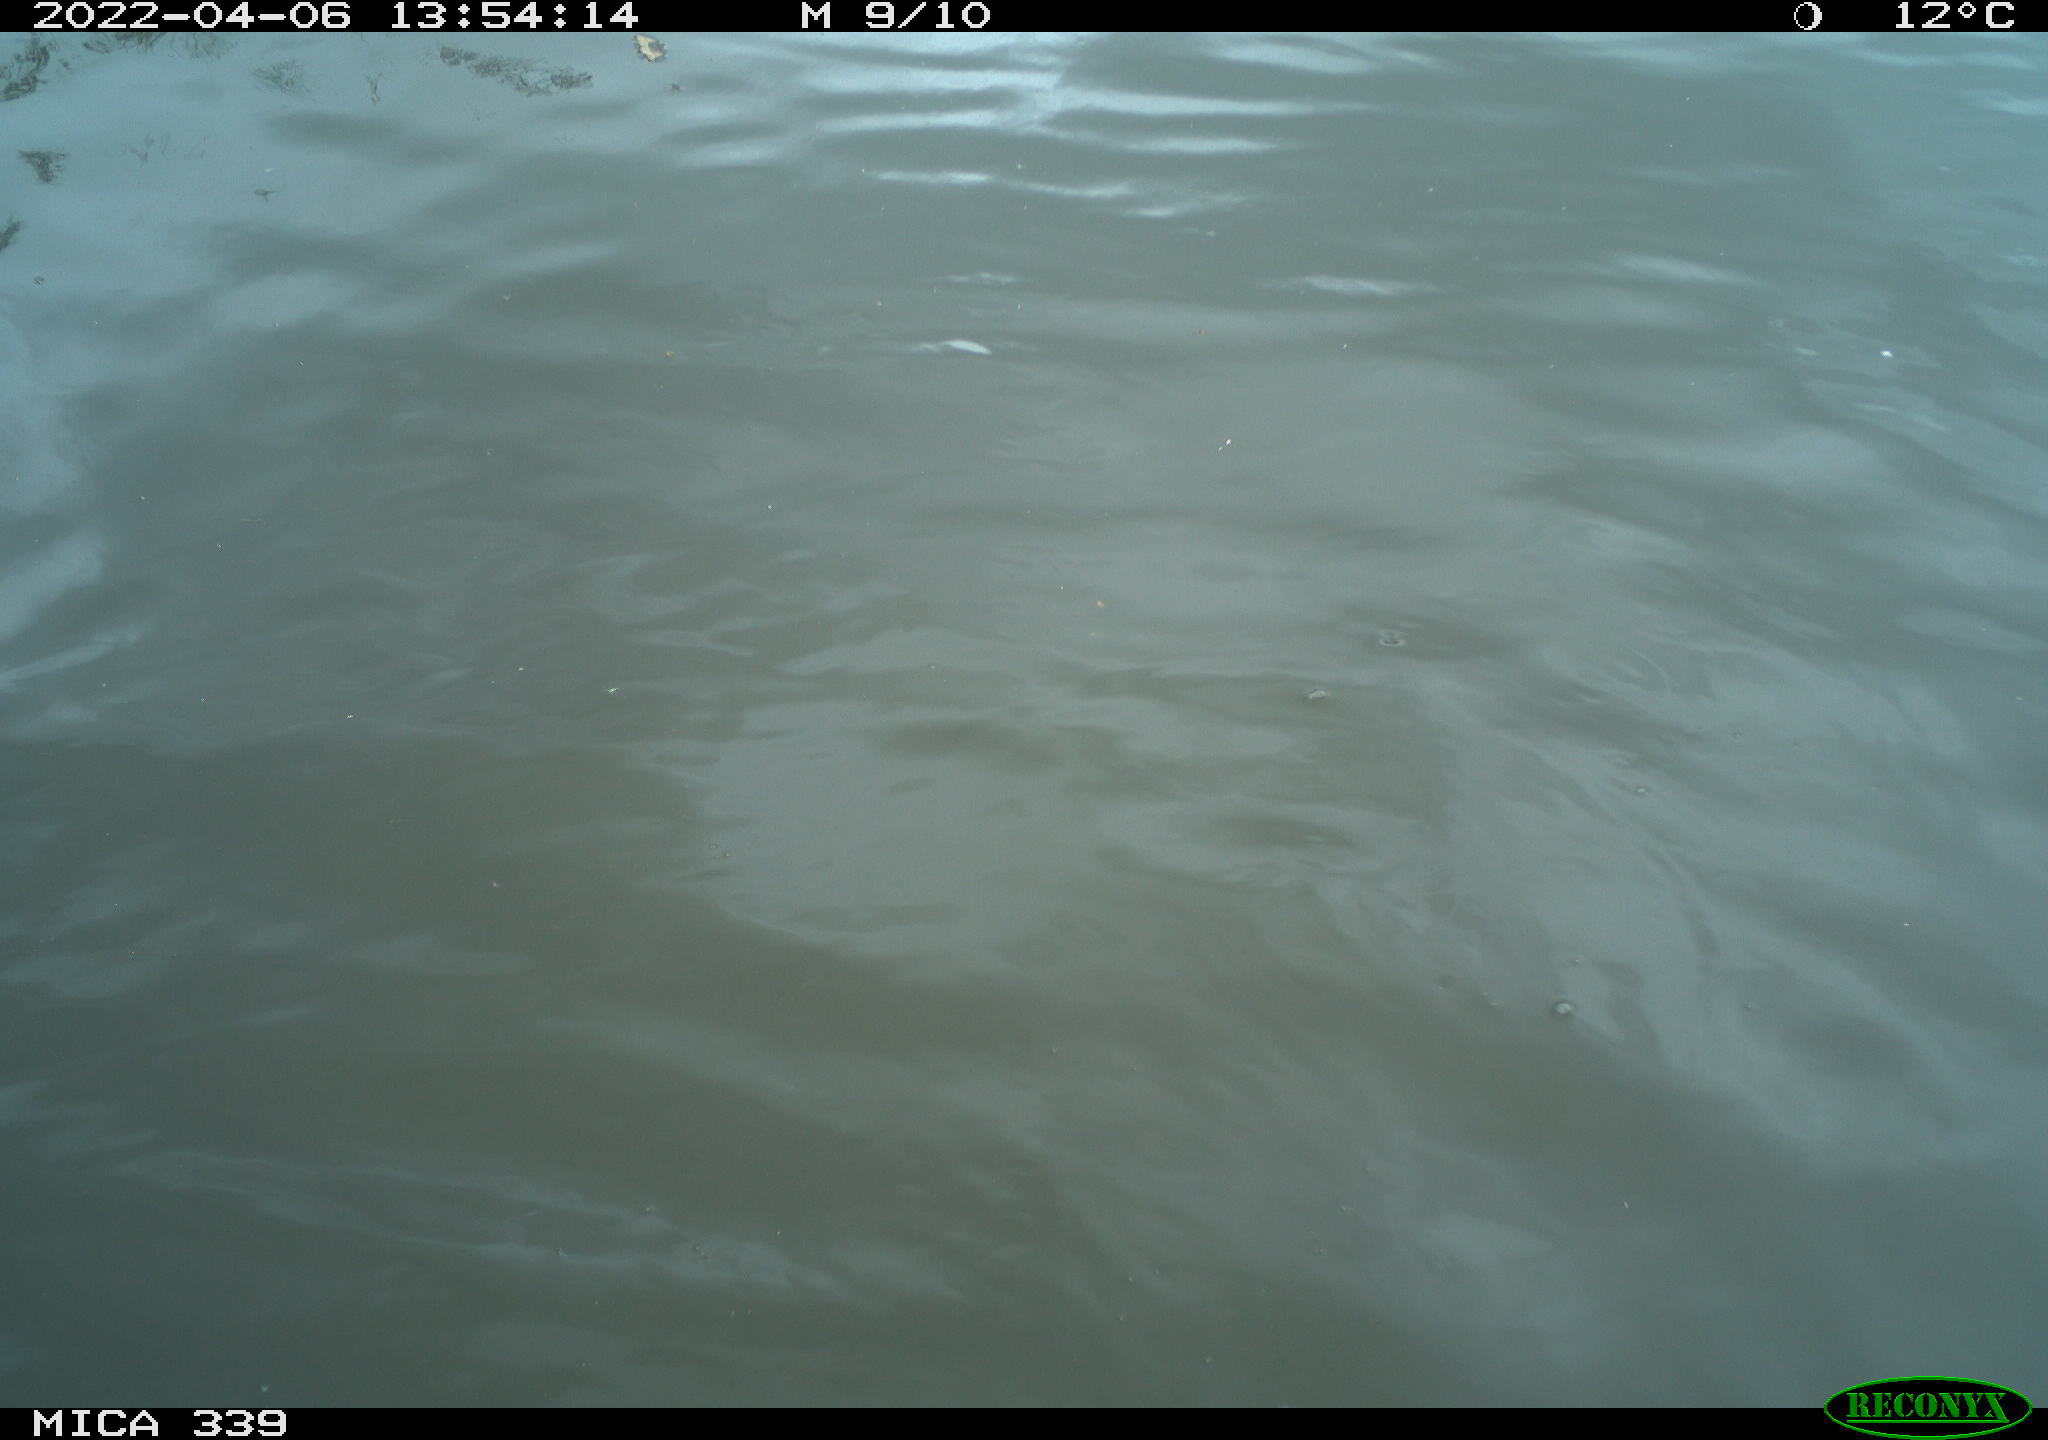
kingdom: Animalia
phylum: Chordata
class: Aves
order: Suliformes
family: Phalacrocoracidae
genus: Phalacrocorax
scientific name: Phalacrocorax carbo
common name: Great cormorant
